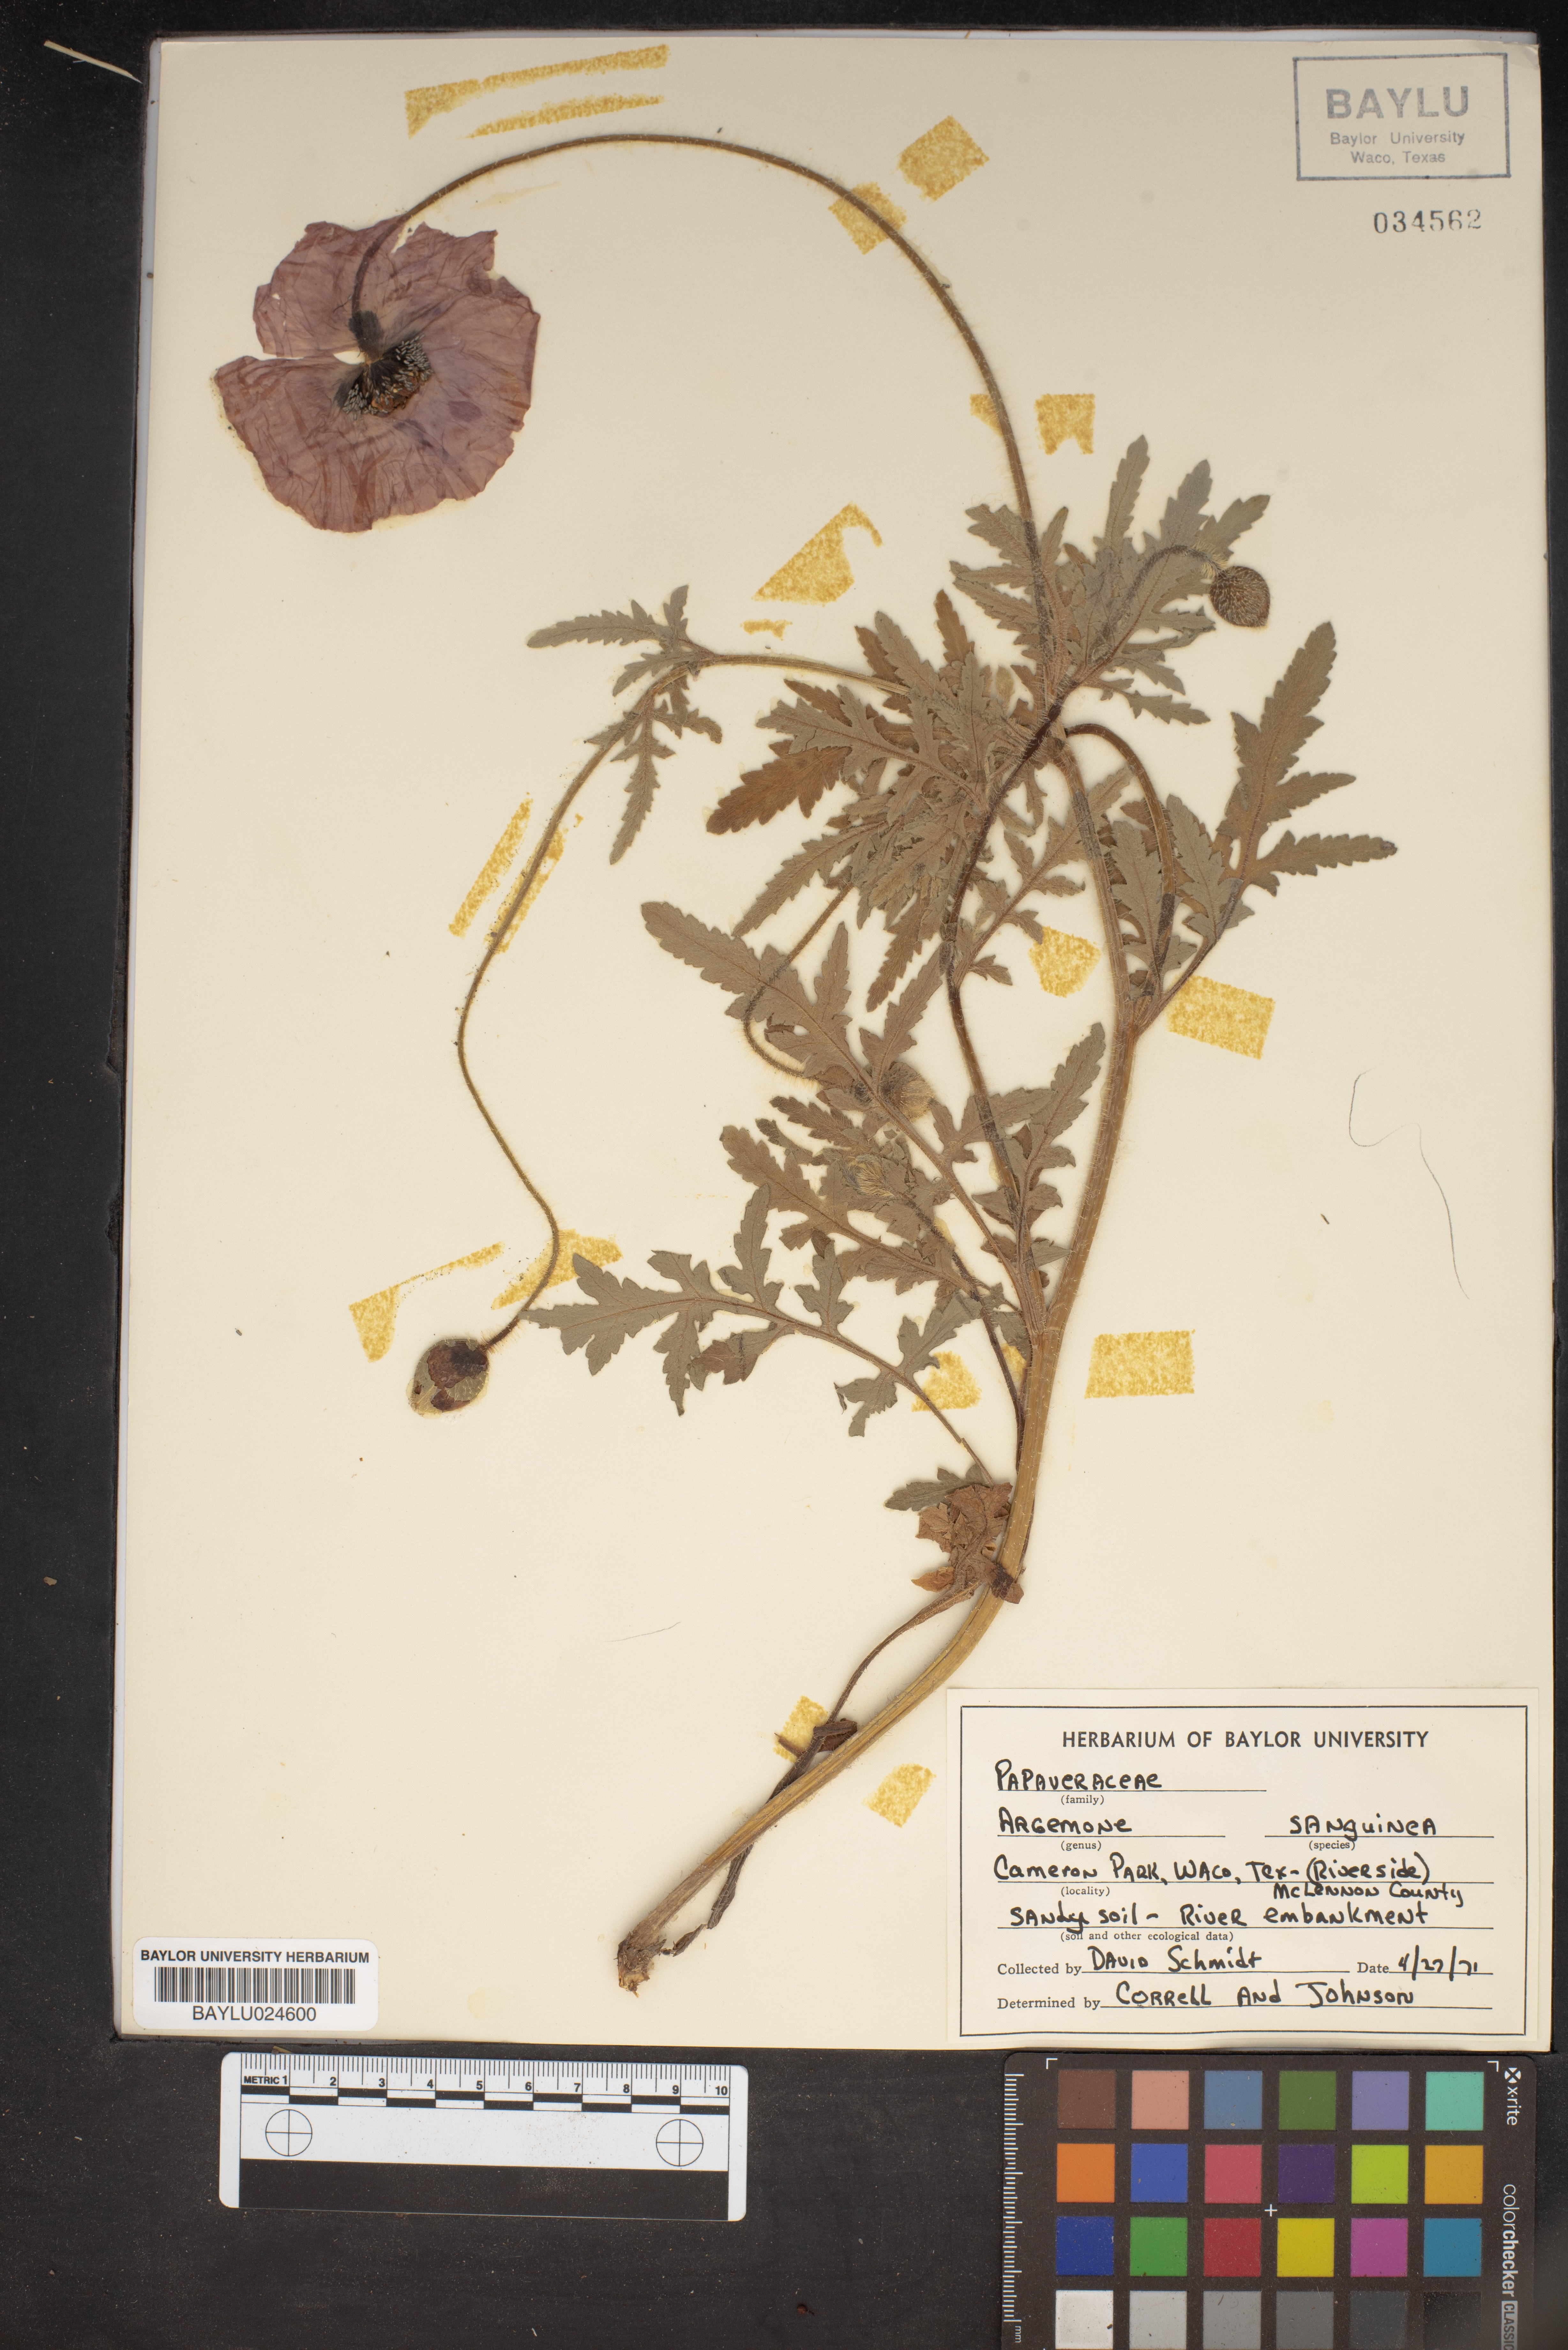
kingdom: Plantae
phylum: Tracheophyta
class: Magnoliopsida
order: Ranunculales
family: Papaveraceae
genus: Argemone
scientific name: Argemone sanguinea
